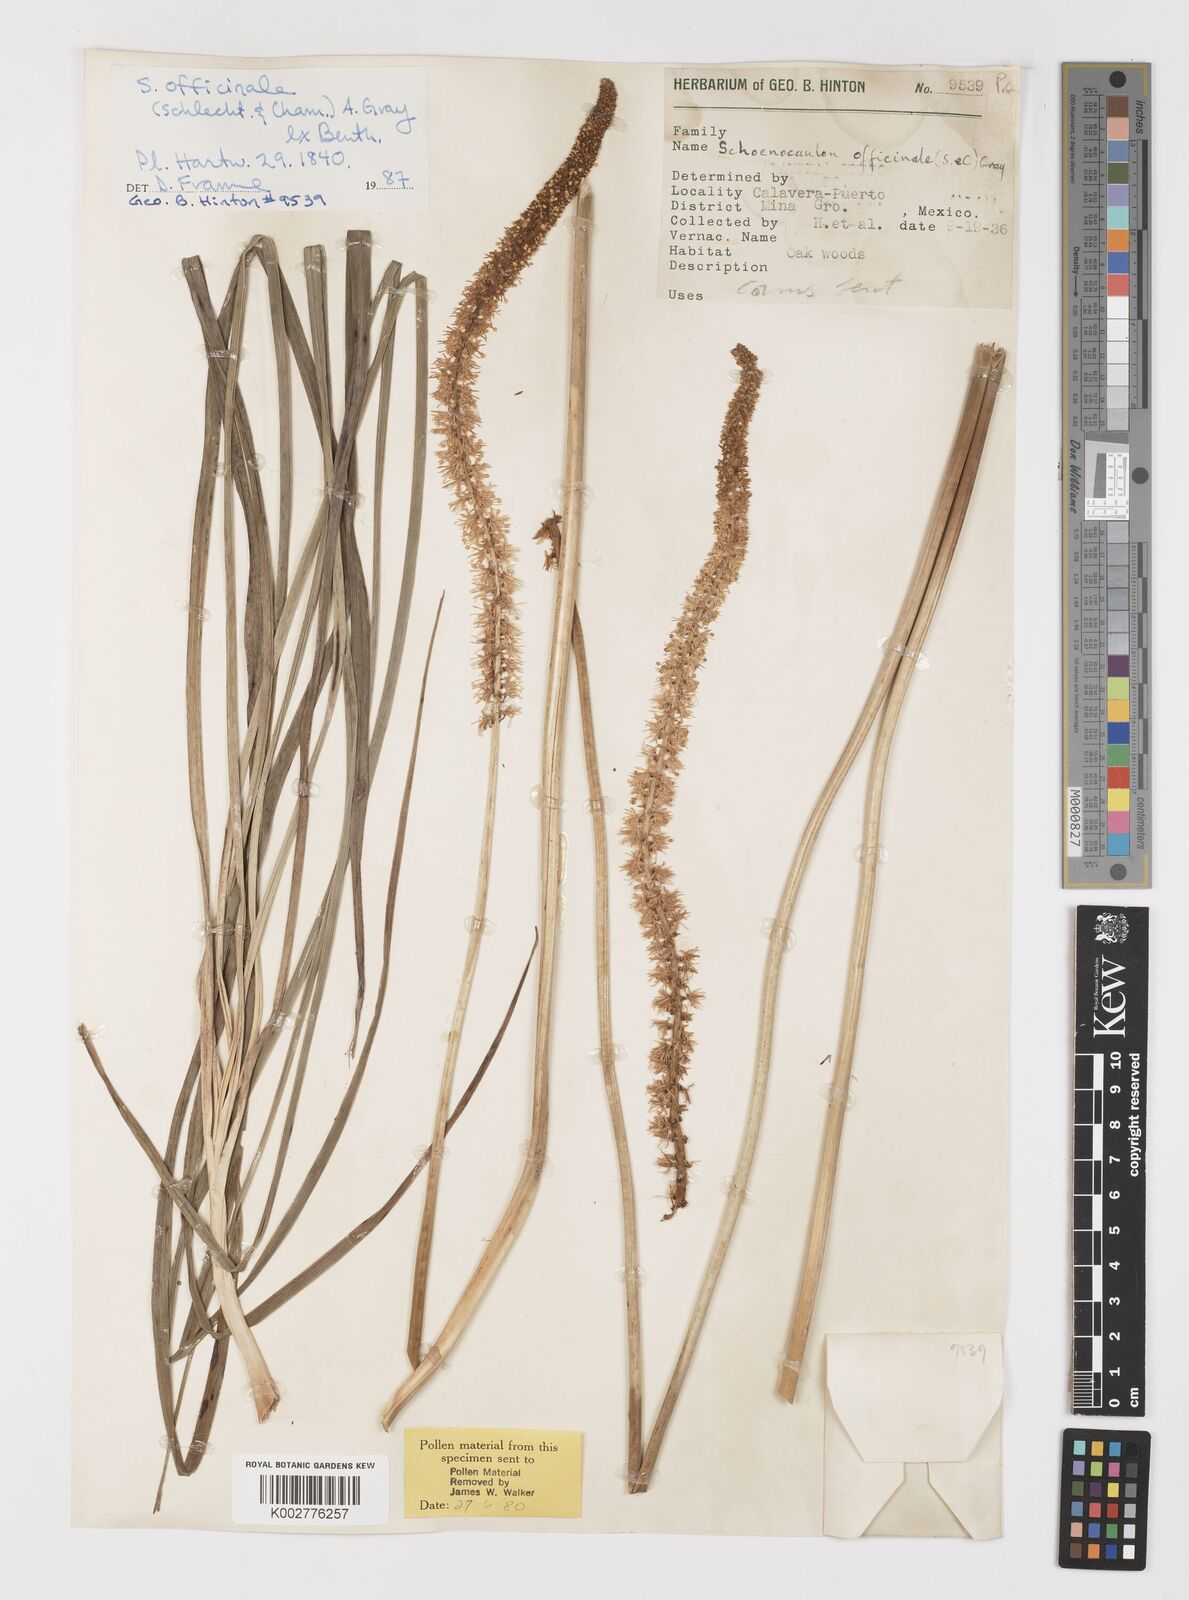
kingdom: Plantae
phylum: Tracheophyta
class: Liliopsida
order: Liliales
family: Melanthiaceae
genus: Schoenocaulon
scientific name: Schoenocaulon officinale
